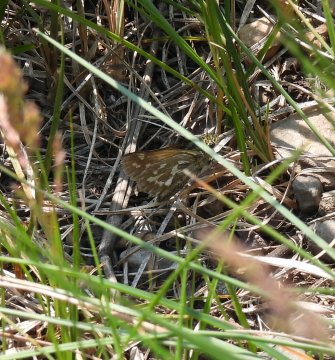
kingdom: Animalia
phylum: Arthropoda
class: Insecta
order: Lepidoptera
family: Hesperiidae
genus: Polites
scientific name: Polites sabuleti
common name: Draco Skipper
